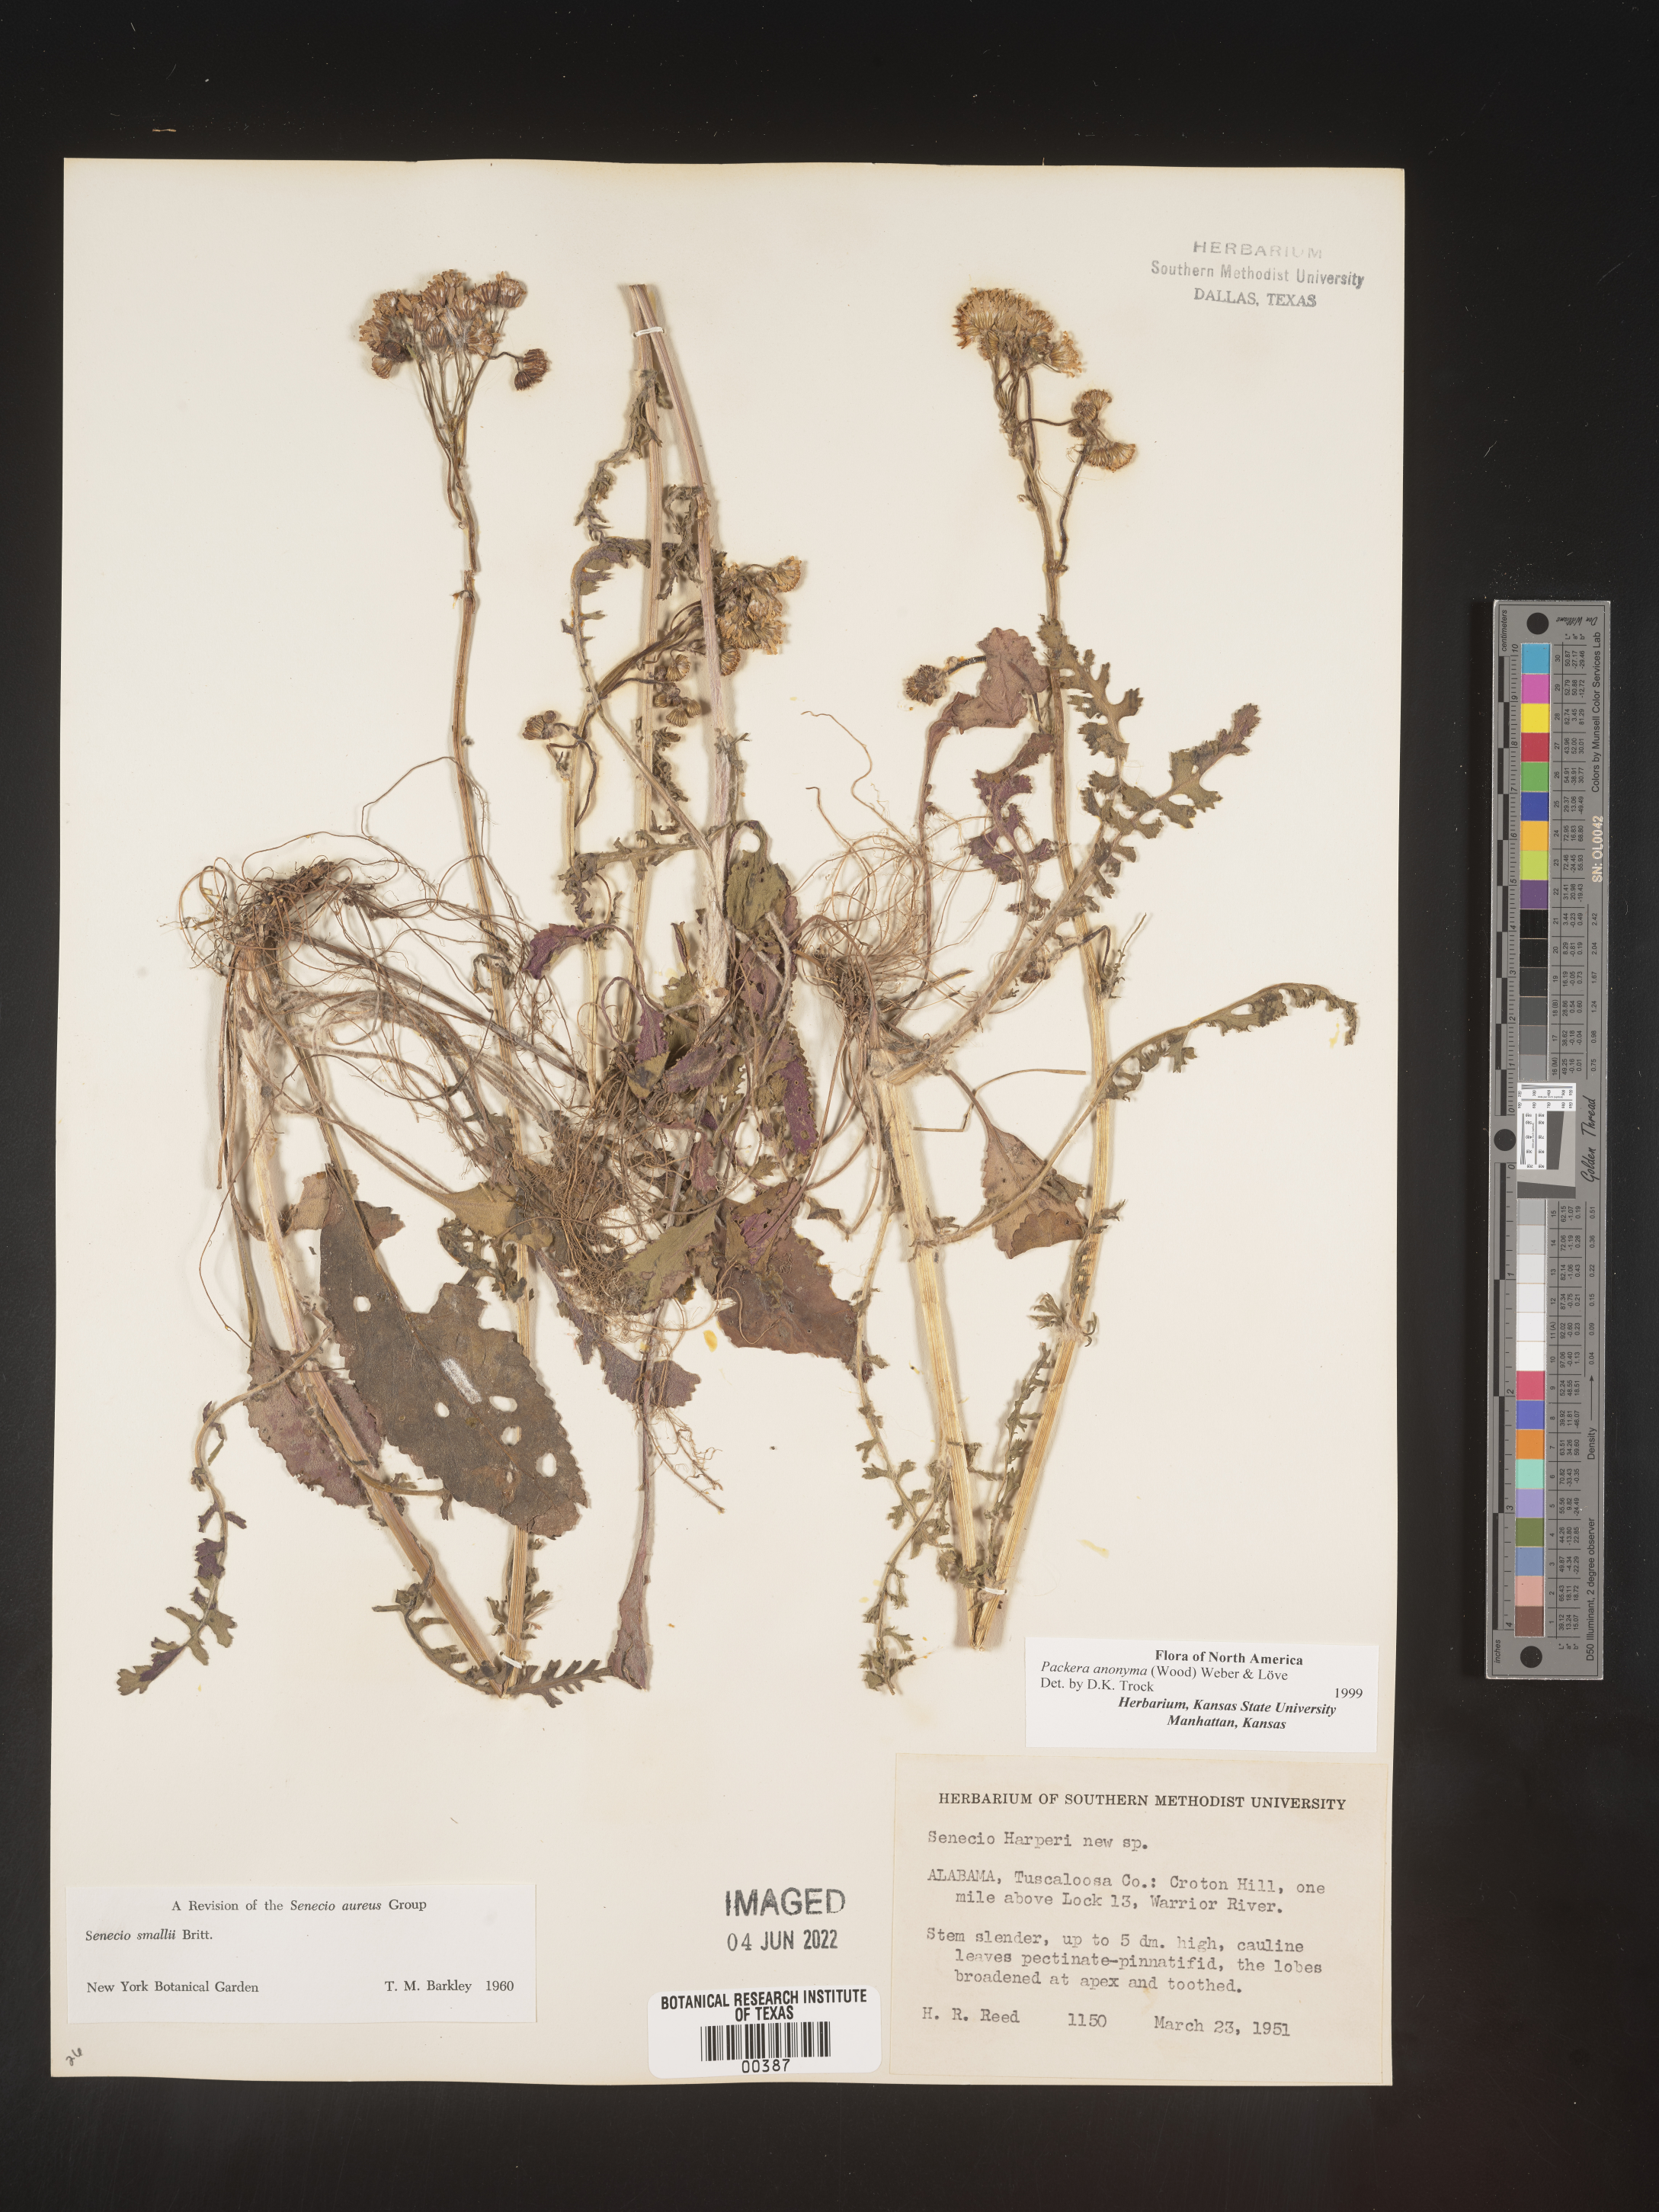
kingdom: Plantae
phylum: Tracheophyta
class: Magnoliopsida
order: Asterales
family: Asteraceae
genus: Packera
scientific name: Packera anonyma
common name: Small ragwort
